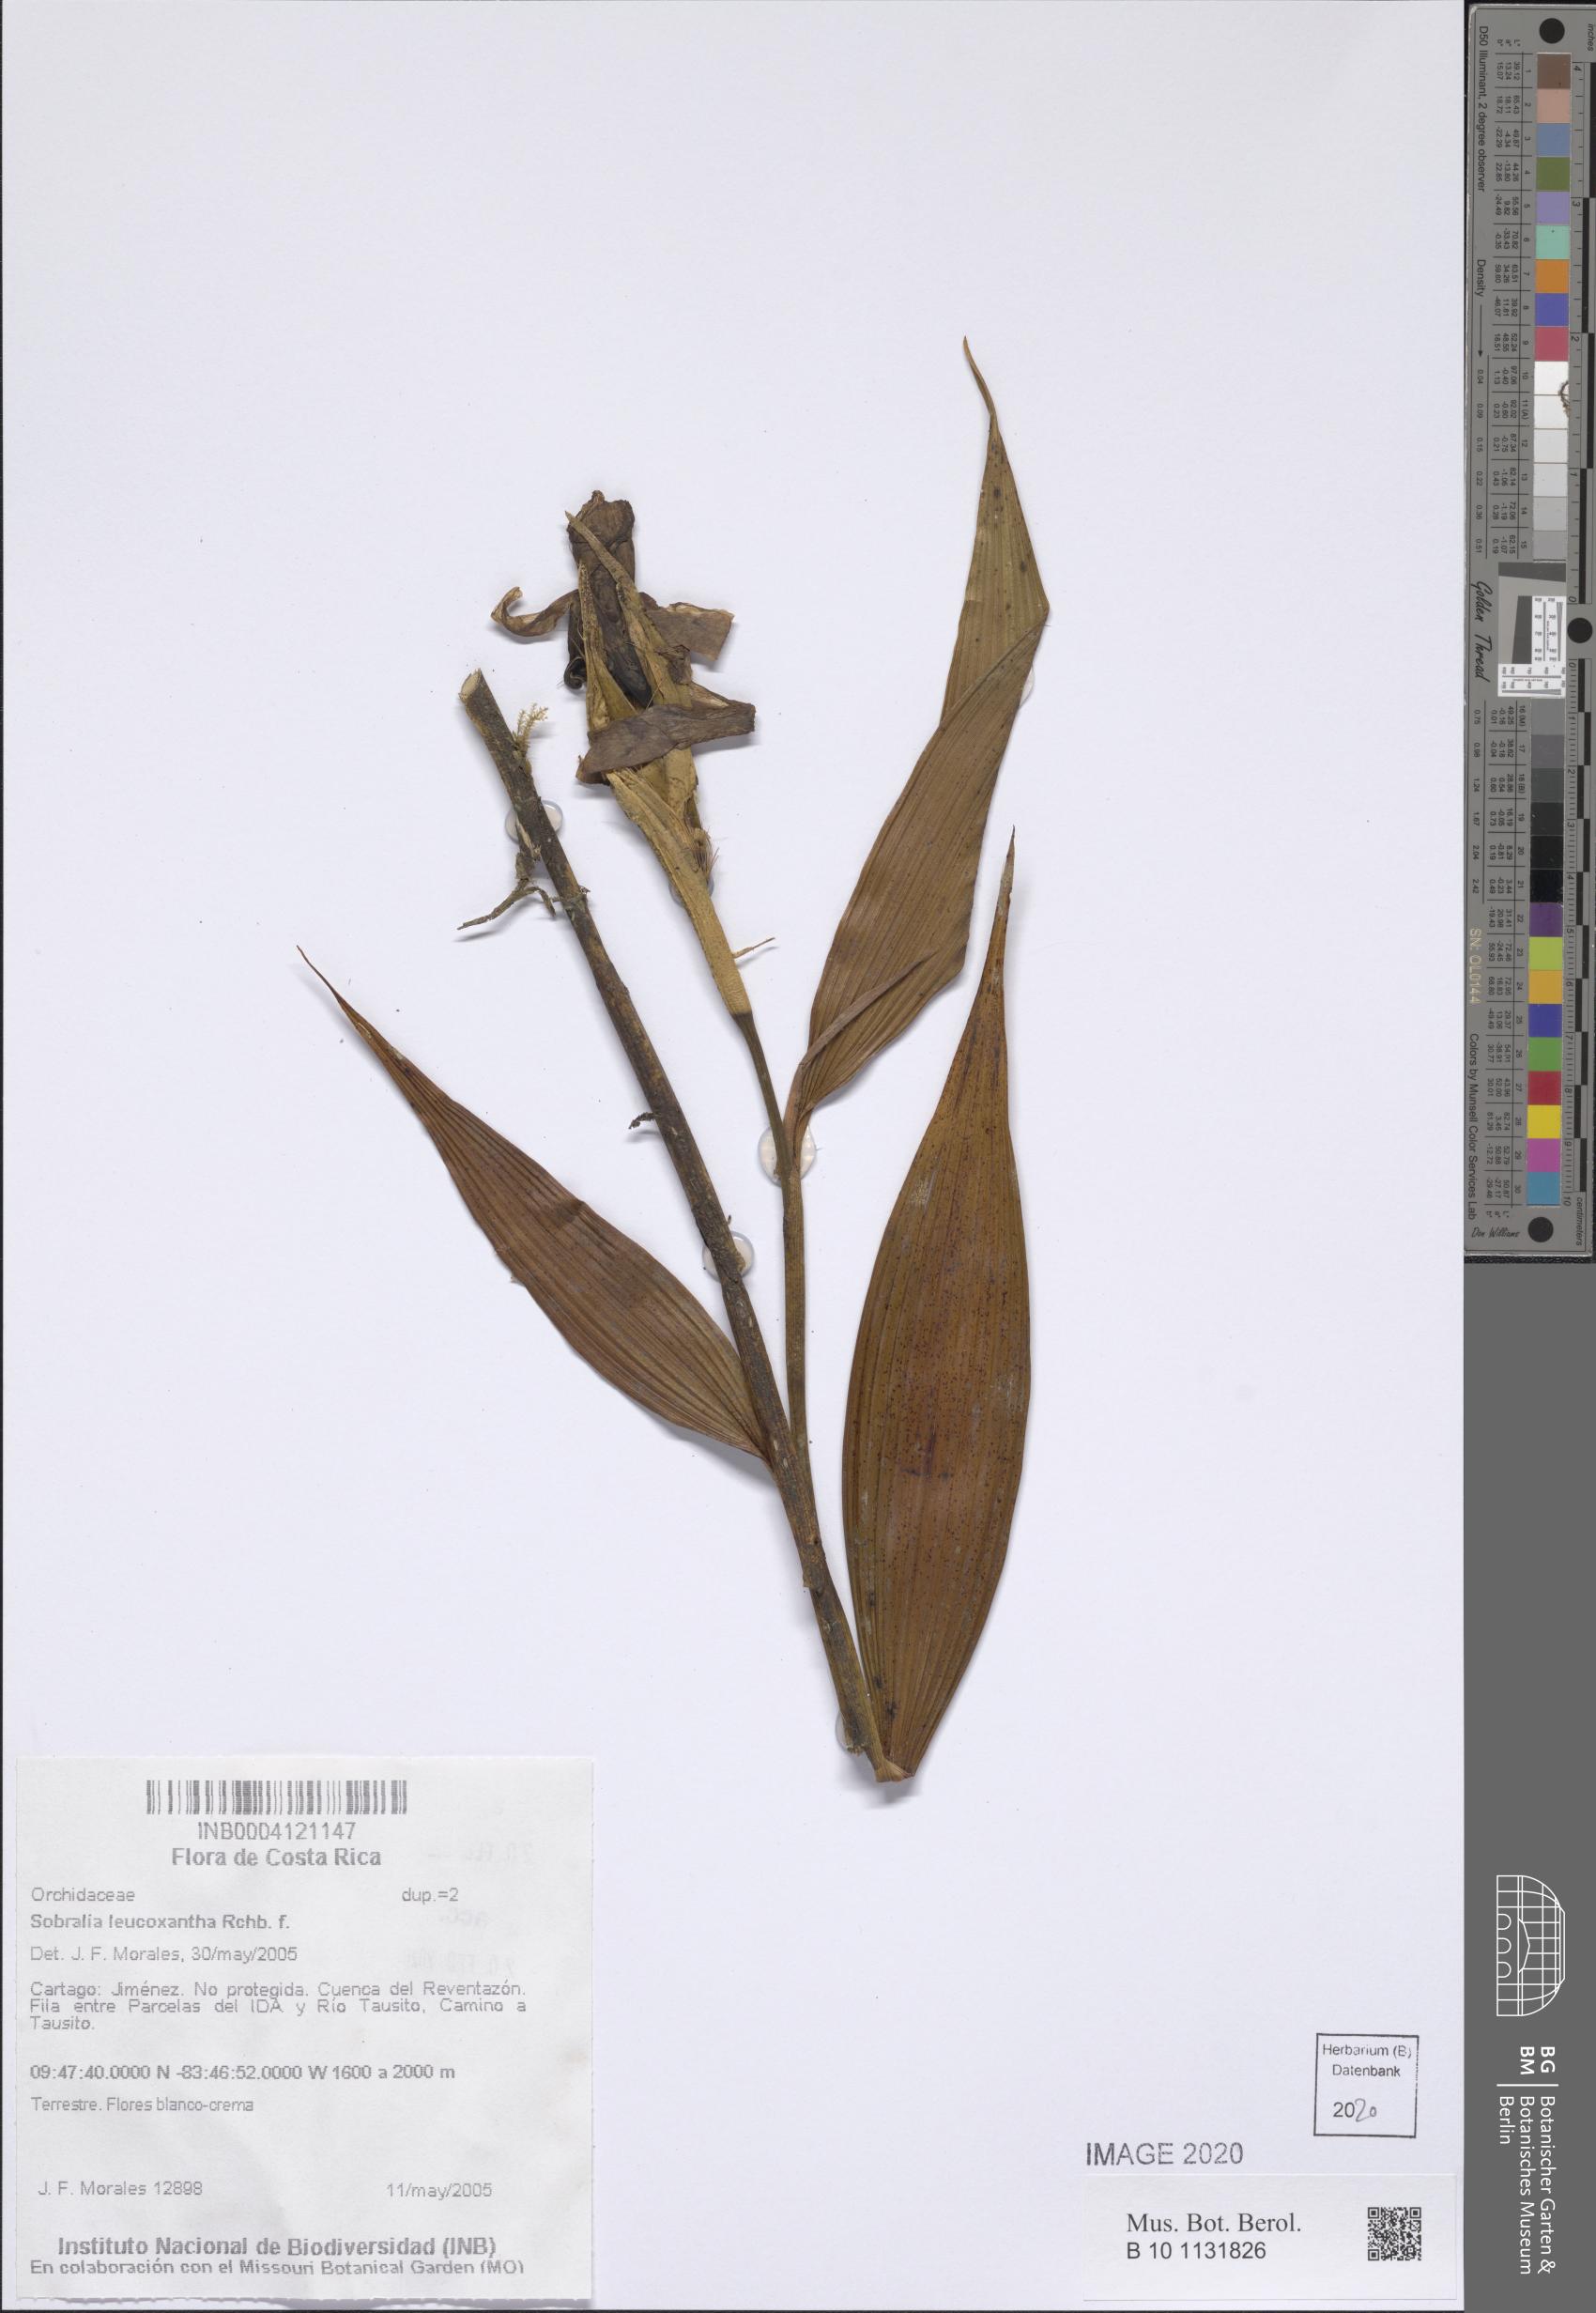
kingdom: Plantae
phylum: Tracheophyta
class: Liliopsida
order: Asparagales
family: Orchidaceae
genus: Sobralia
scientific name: Sobralia leucoxantha
